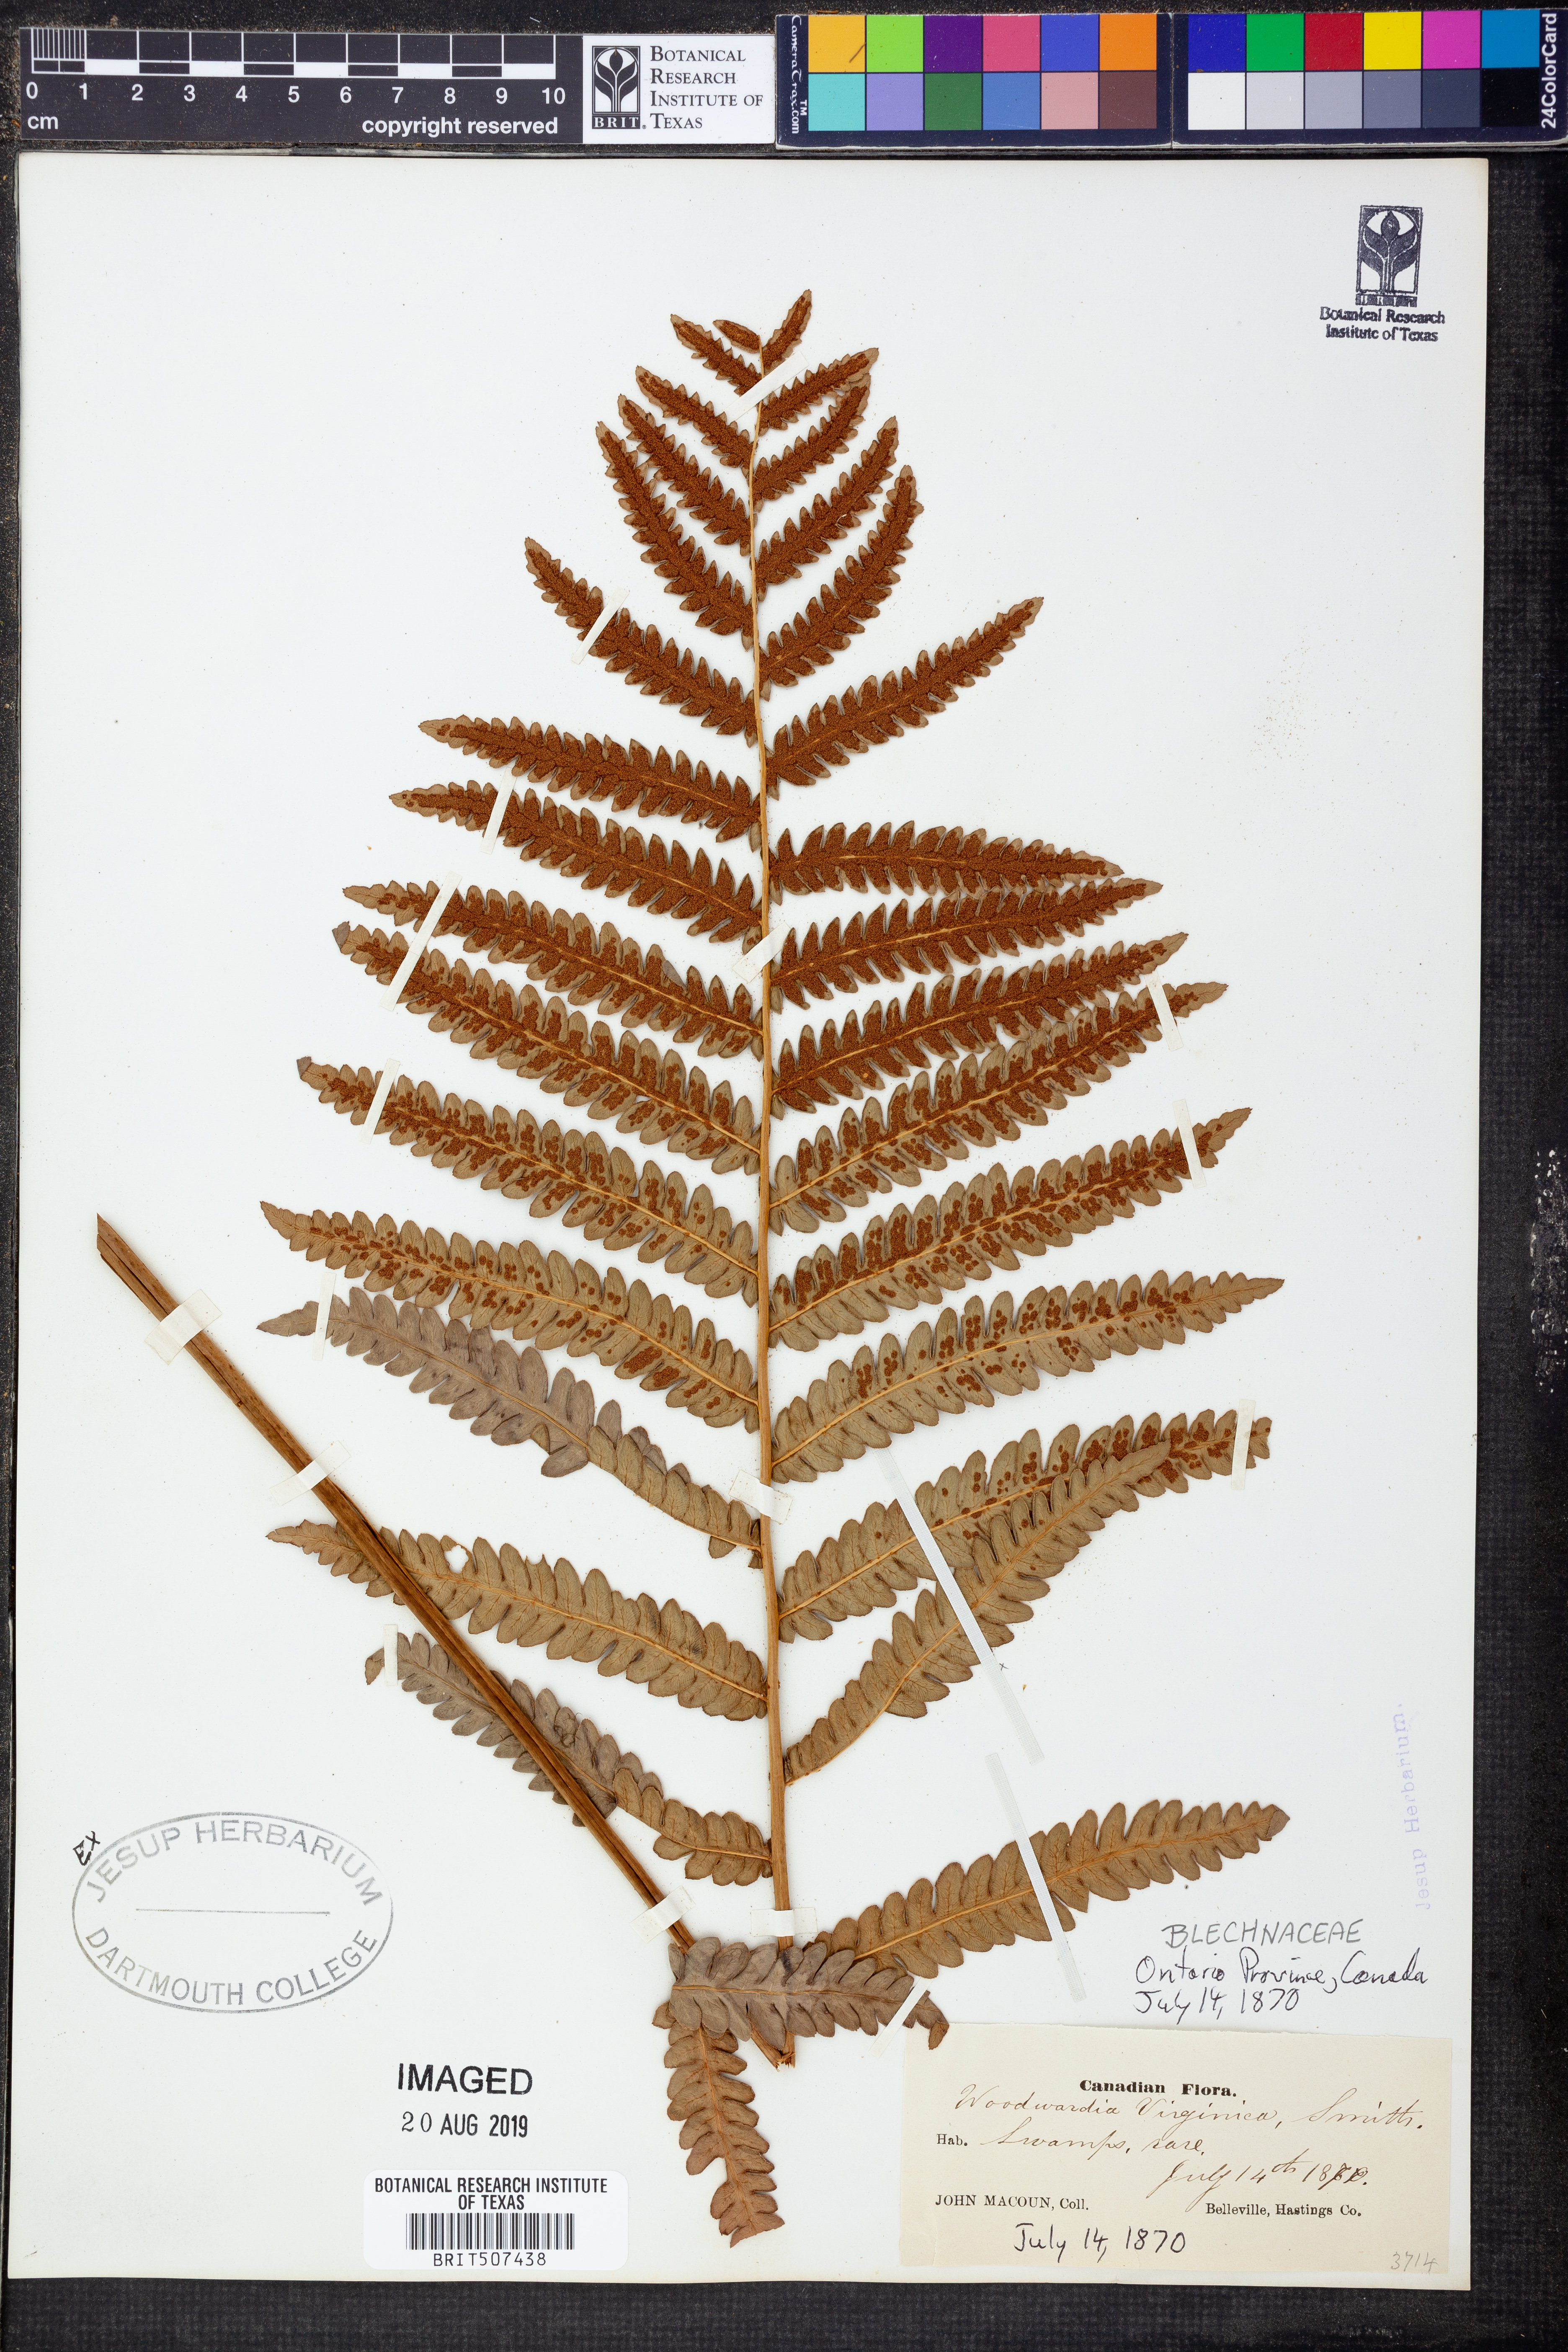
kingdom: Plantae
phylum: Tracheophyta
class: Polypodiopsida
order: Polypodiales
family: Blechnaceae
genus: Anchistea
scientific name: Anchistea virginica
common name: Virginia chain fern
